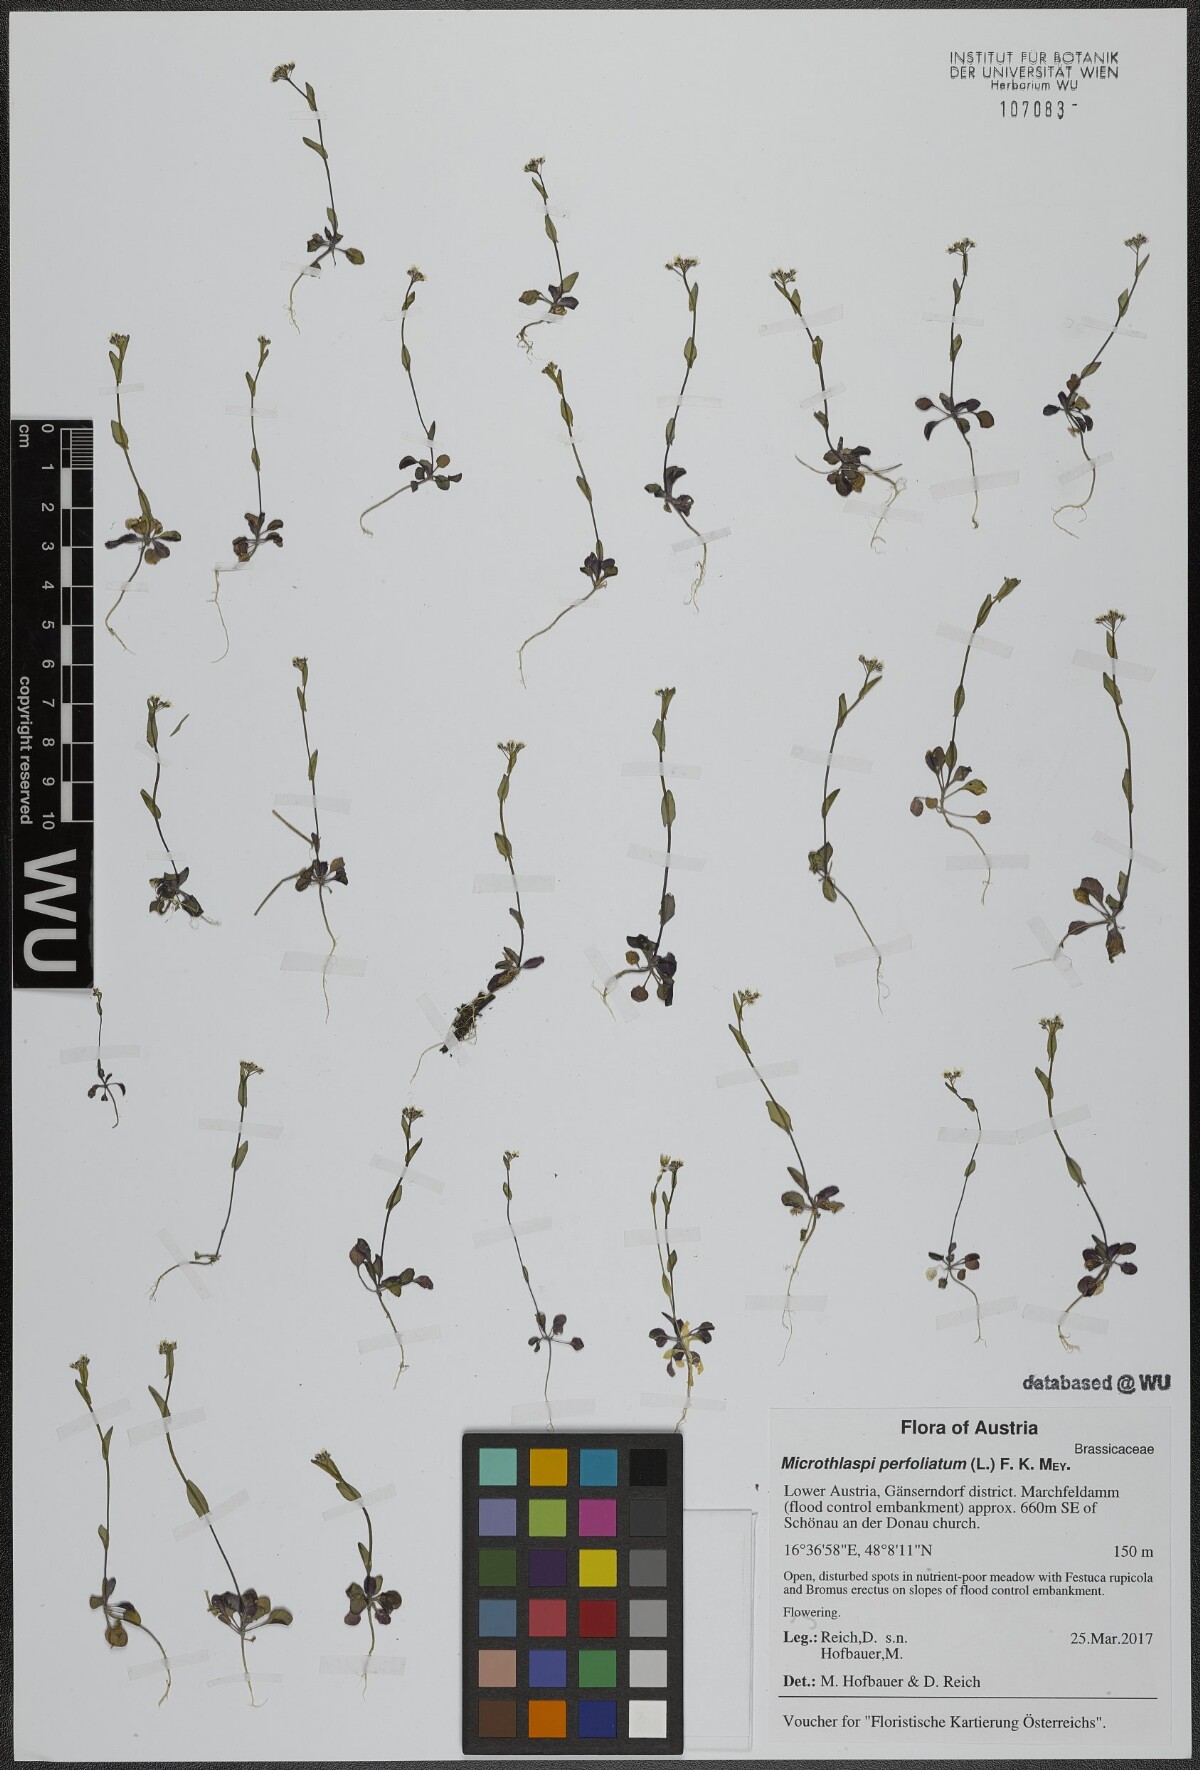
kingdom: Plantae
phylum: Tracheophyta
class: Magnoliopsida
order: Brassicales
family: Brassicaceae
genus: Noccaea
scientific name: Noccaea perfoliata
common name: Perfoliate pennycress
